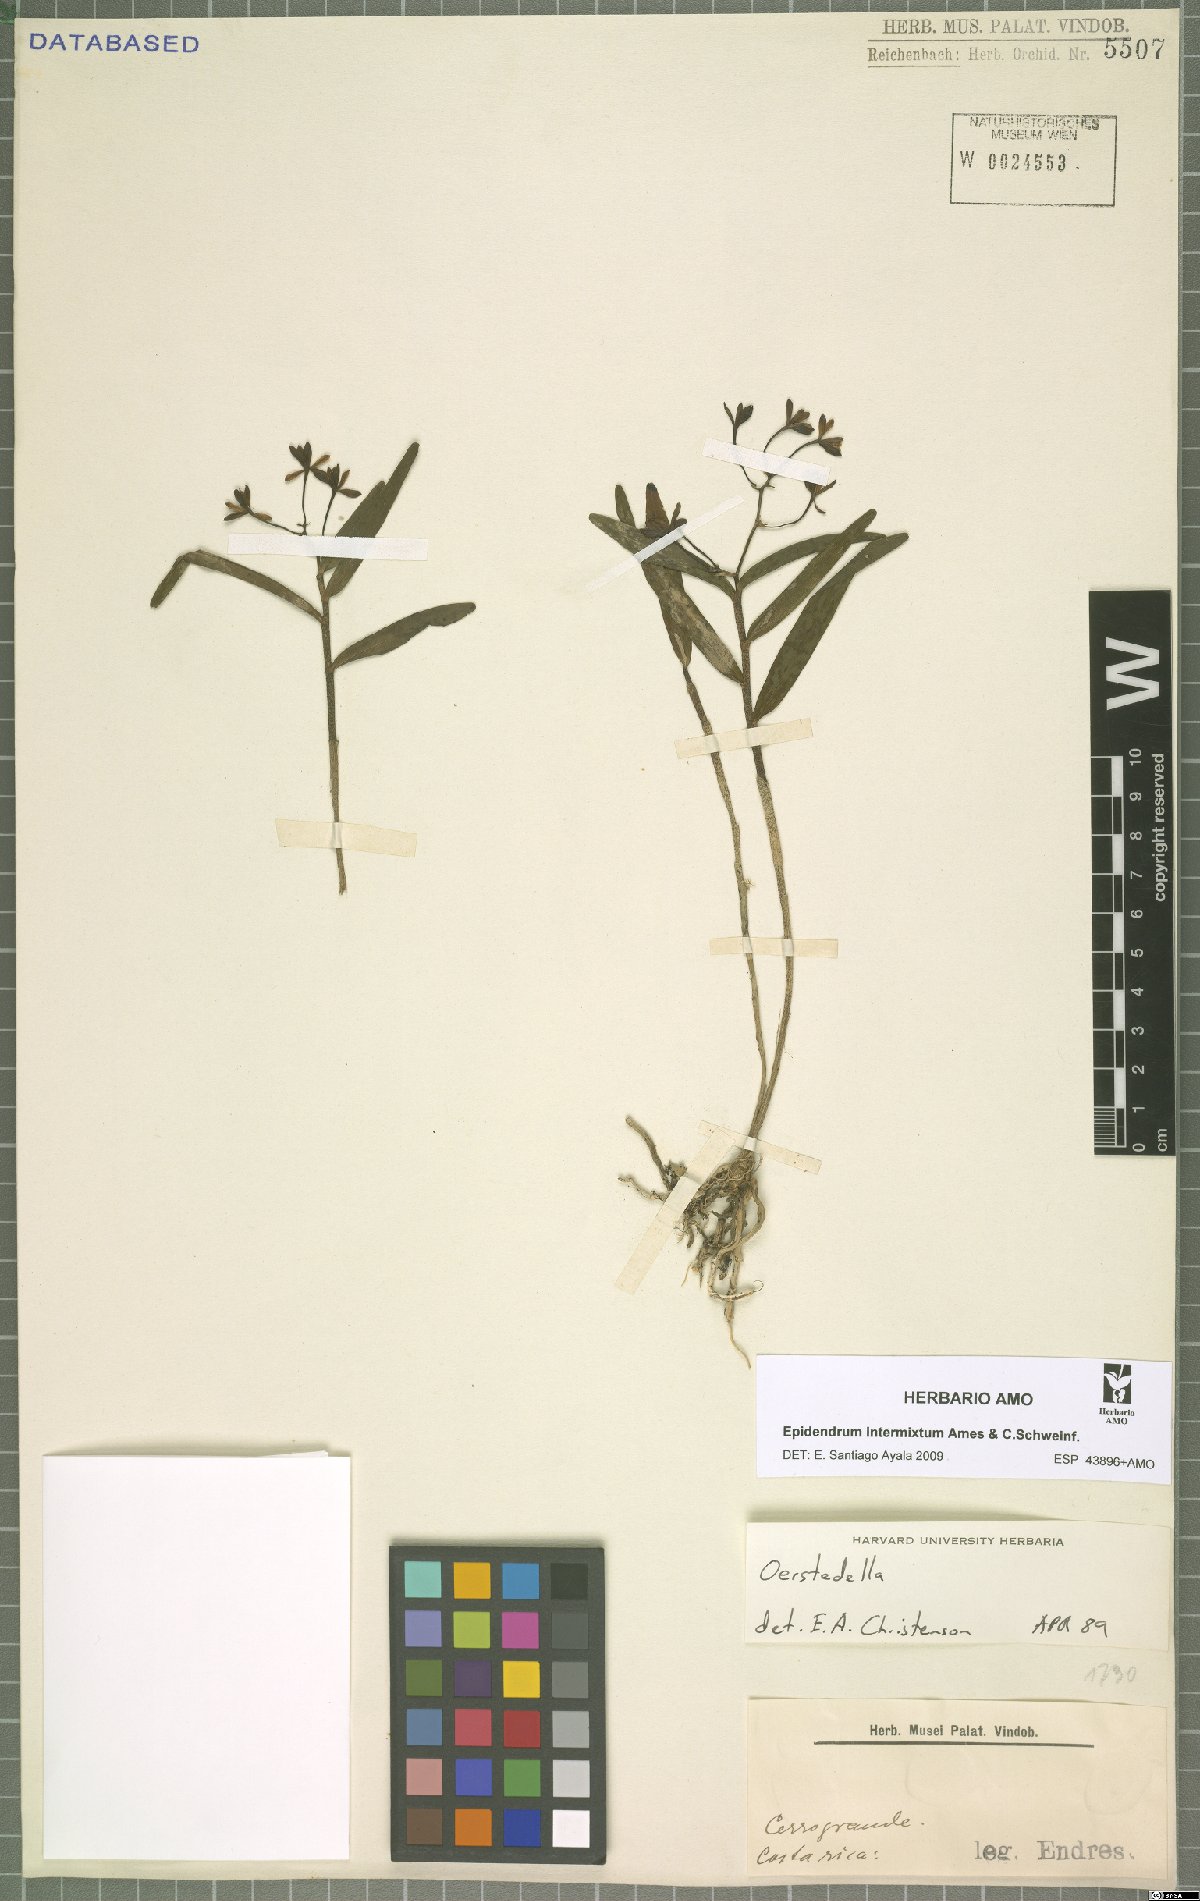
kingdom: Plantae
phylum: Tracheophyta
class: Liliopsida
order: Asparagales
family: Orchidaceae
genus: Epidendrum
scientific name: Epidendrum intermixtum
